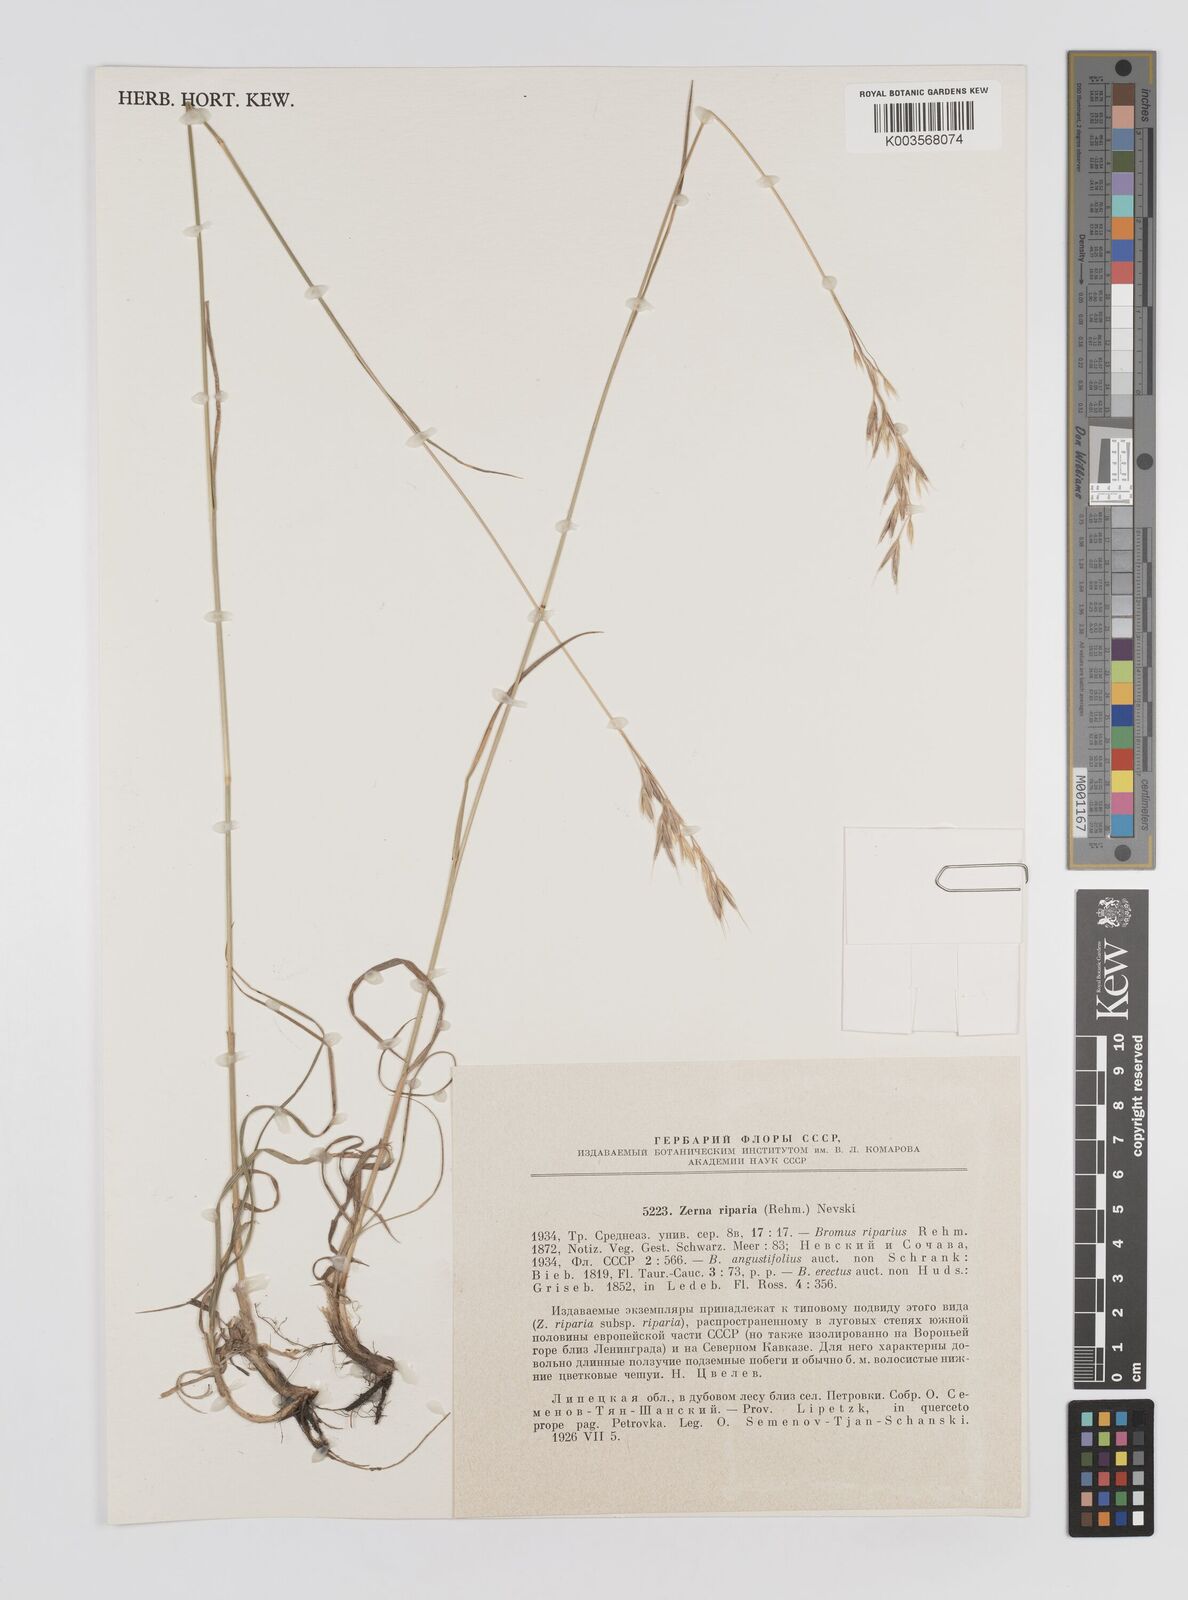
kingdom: Plantae
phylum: Tracheophyta
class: Liliopsida
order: Poales
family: Poaceae
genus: Bromus
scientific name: Bromus riparius
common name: Meadow brome
